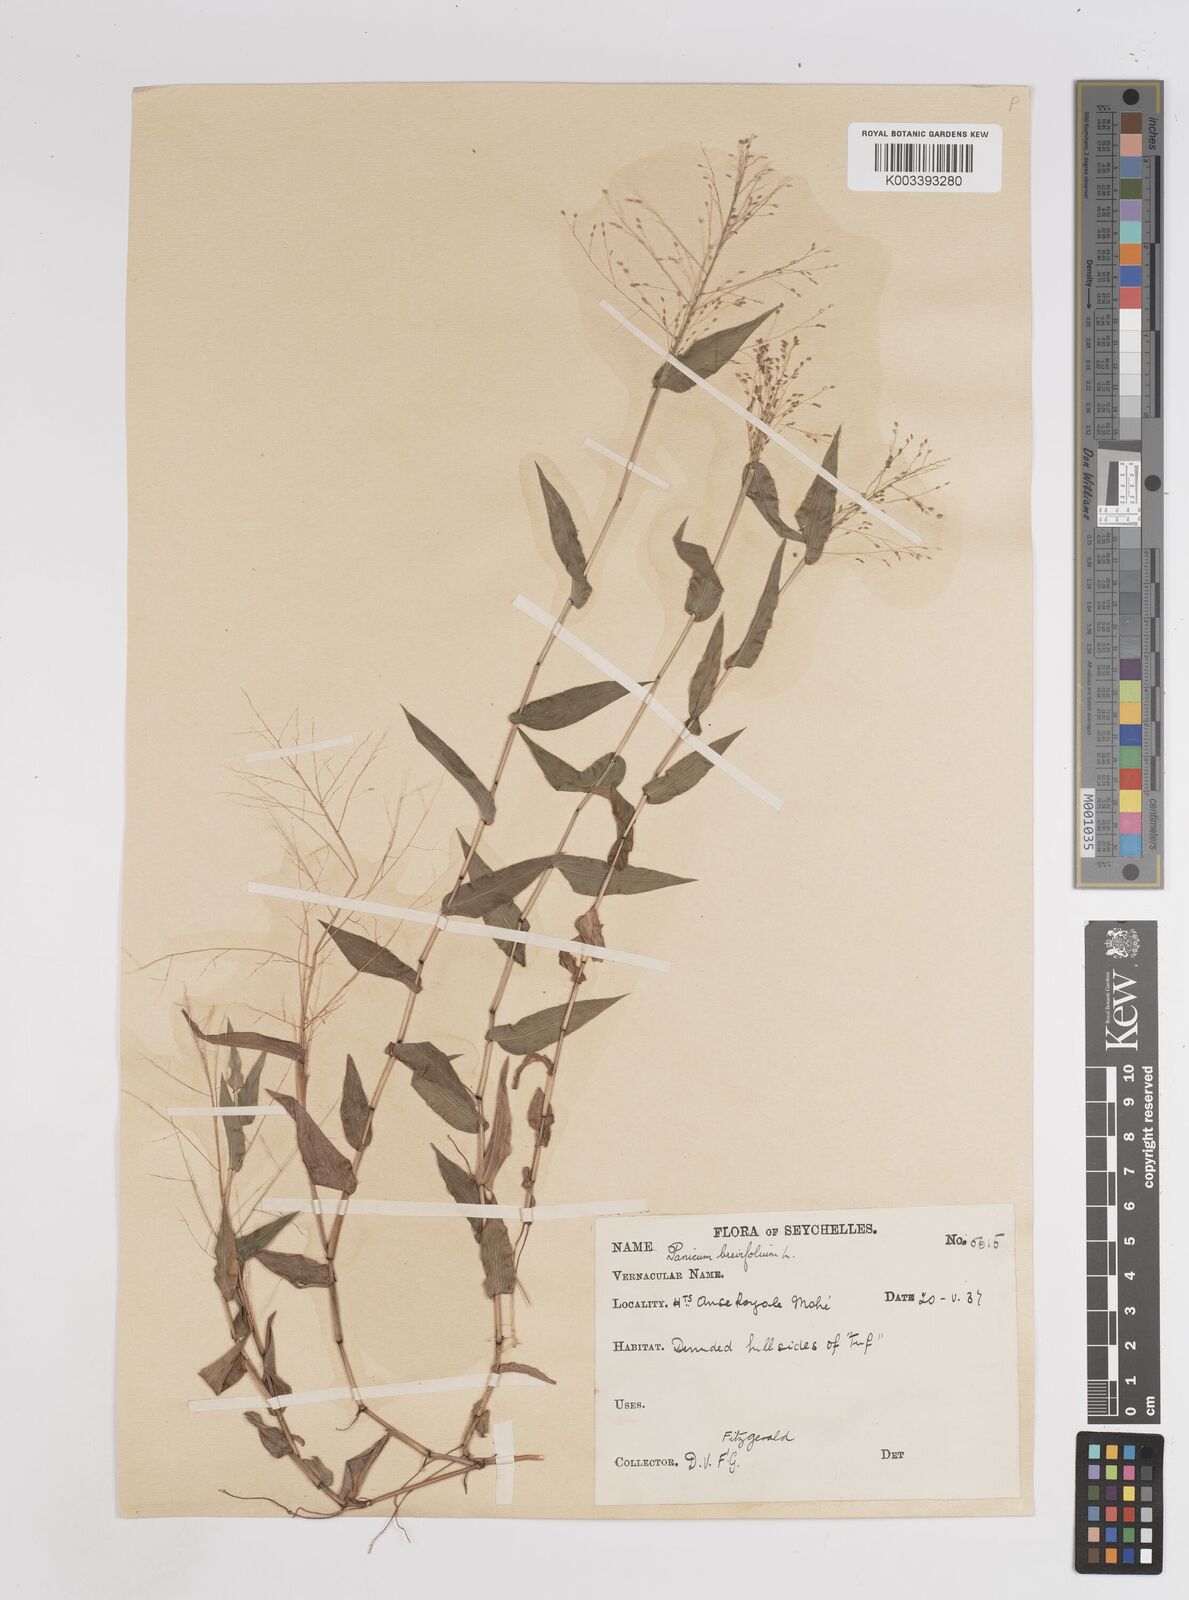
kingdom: Plantae
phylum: Tracheophyta
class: Liliopsida
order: Poales
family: Poaceae
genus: Panicum
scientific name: Panicum brevifolium
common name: Shortleaf panic grass
